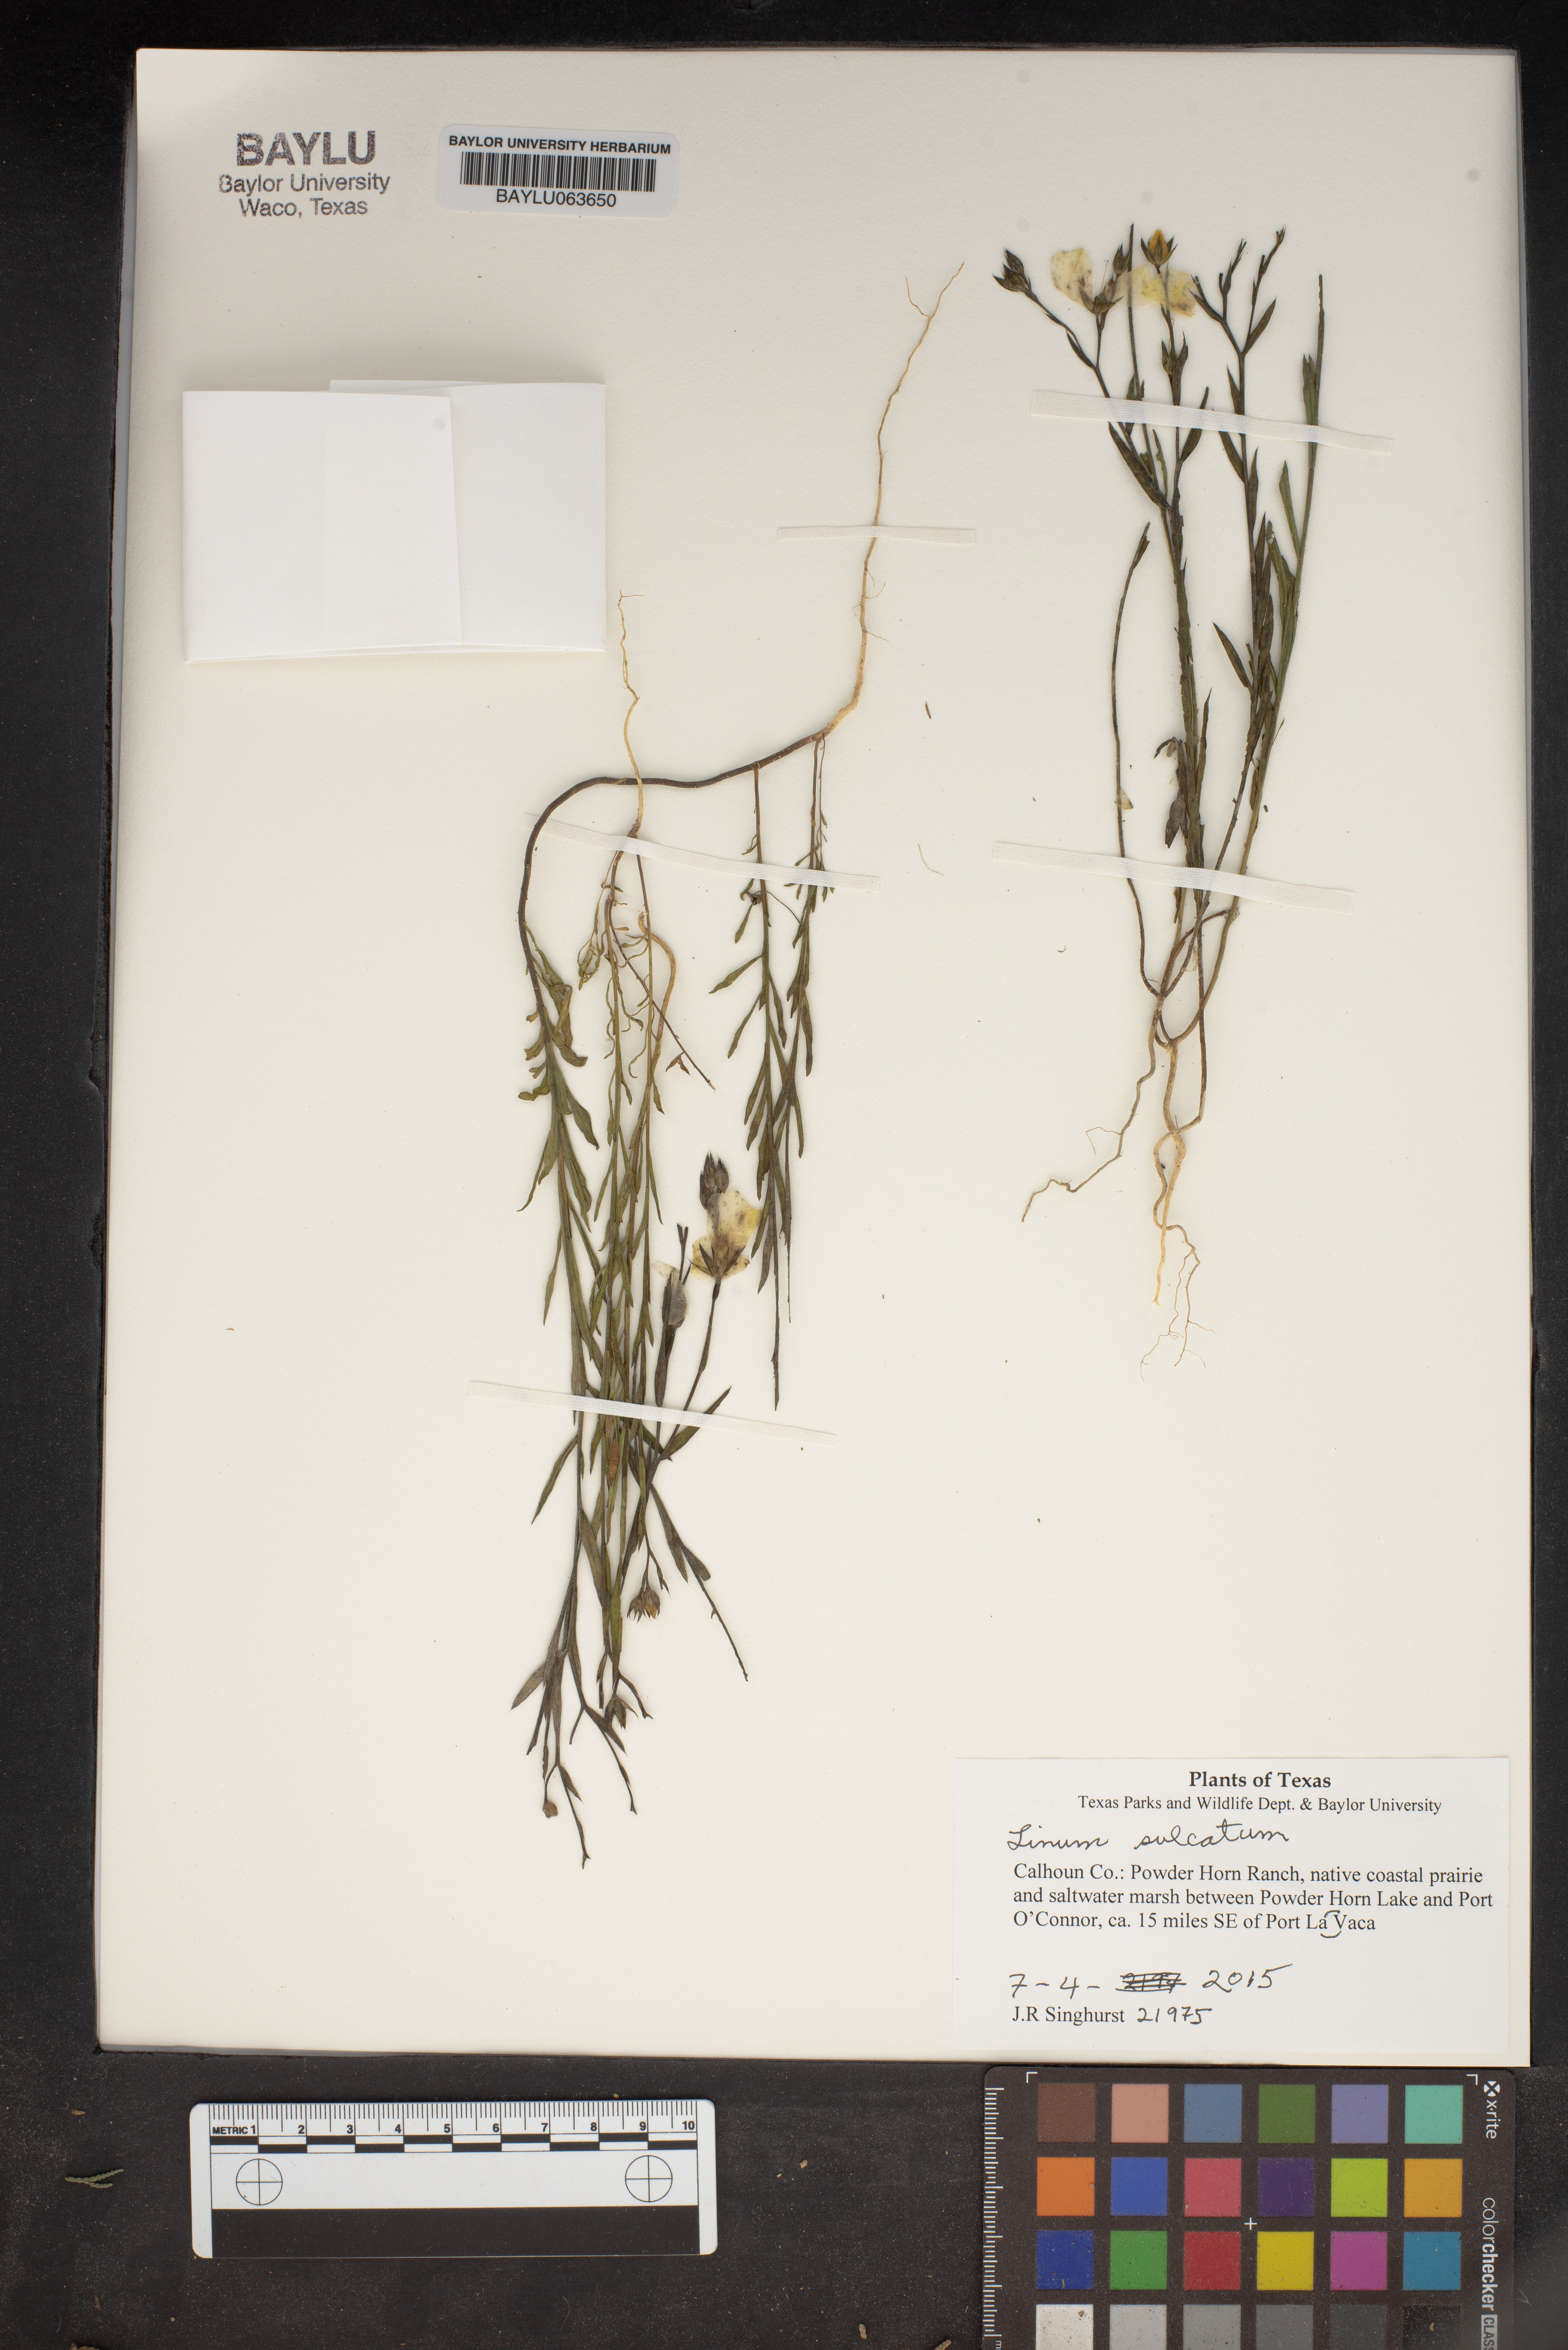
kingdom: Plantae
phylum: Tracheophyta
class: Magnoliopsida
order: Caryophyllales
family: Limeaceae
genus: Limeum
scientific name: Limeum sulcatum
